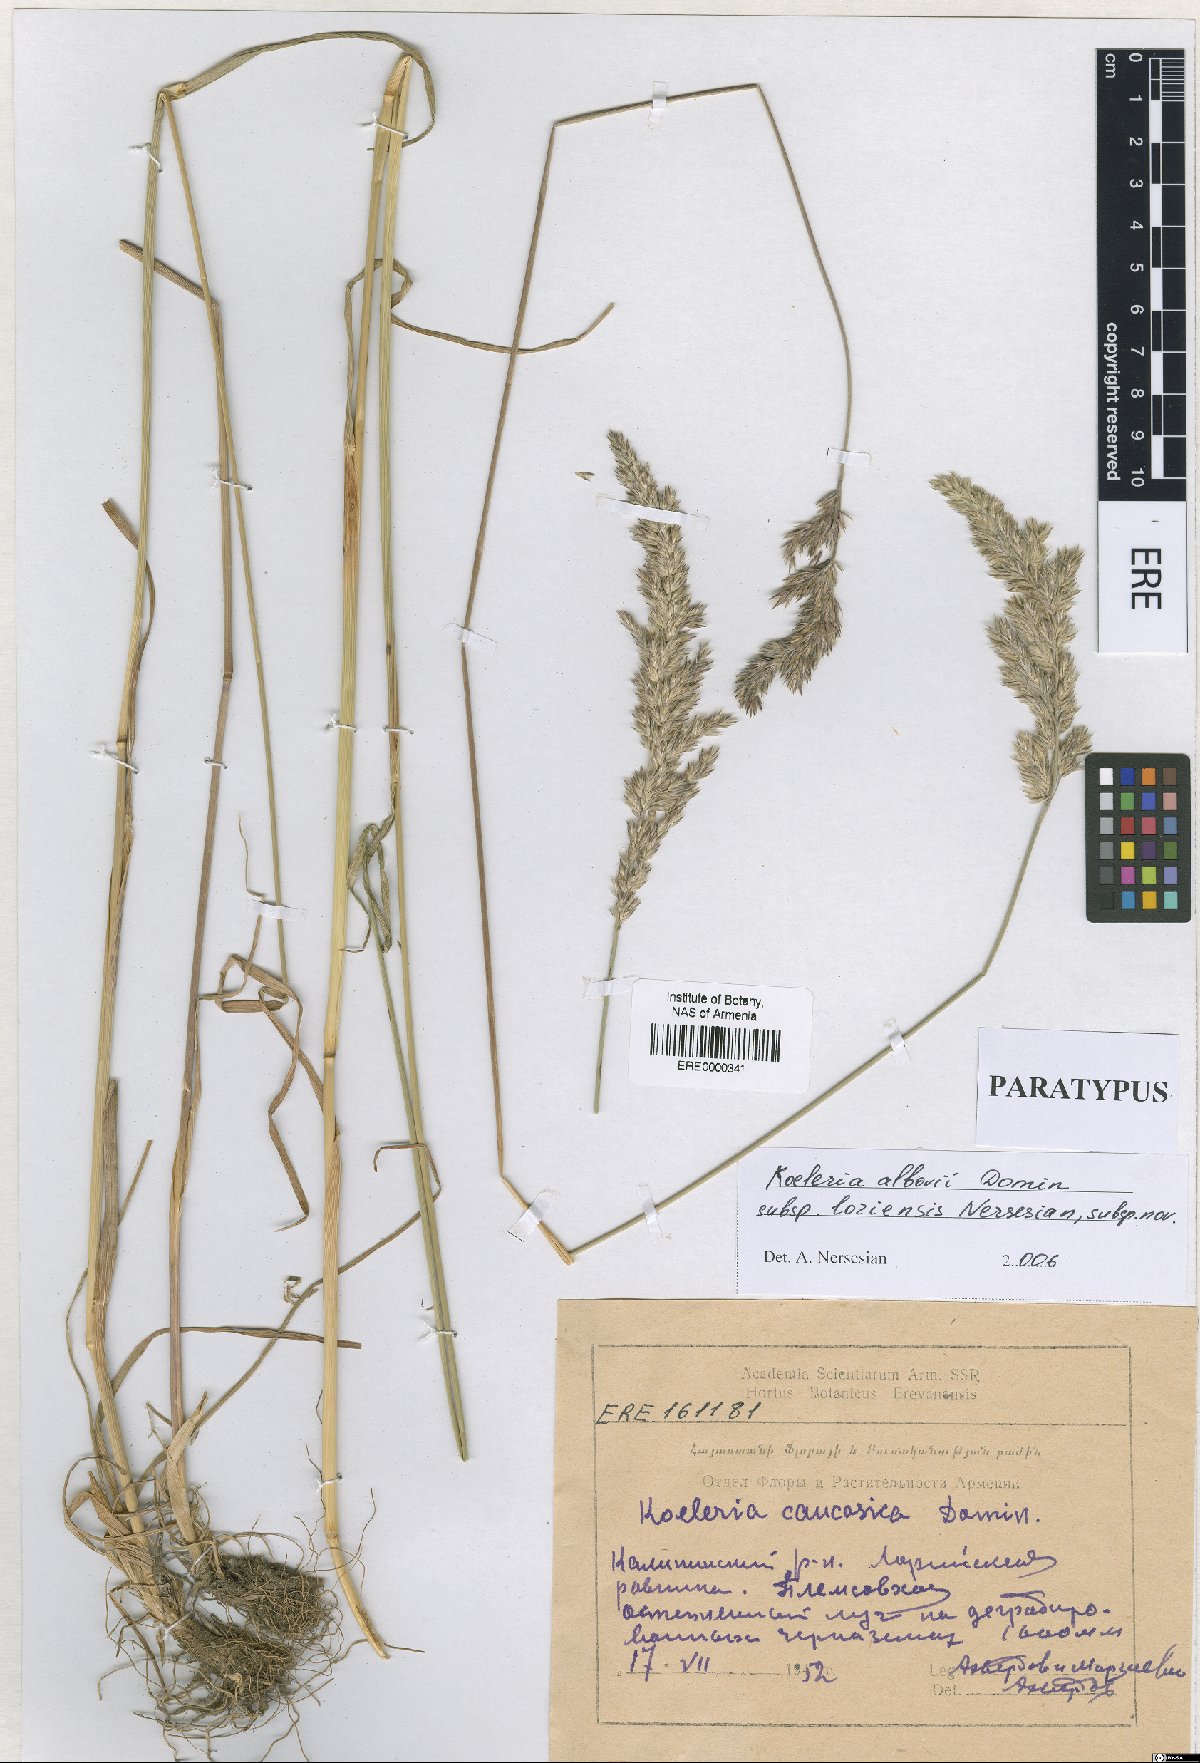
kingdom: Plantae
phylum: Tracheophyta
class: Liliopsida
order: Poales
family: Poaceae
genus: Koeleria
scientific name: Koeleria eriostachya
